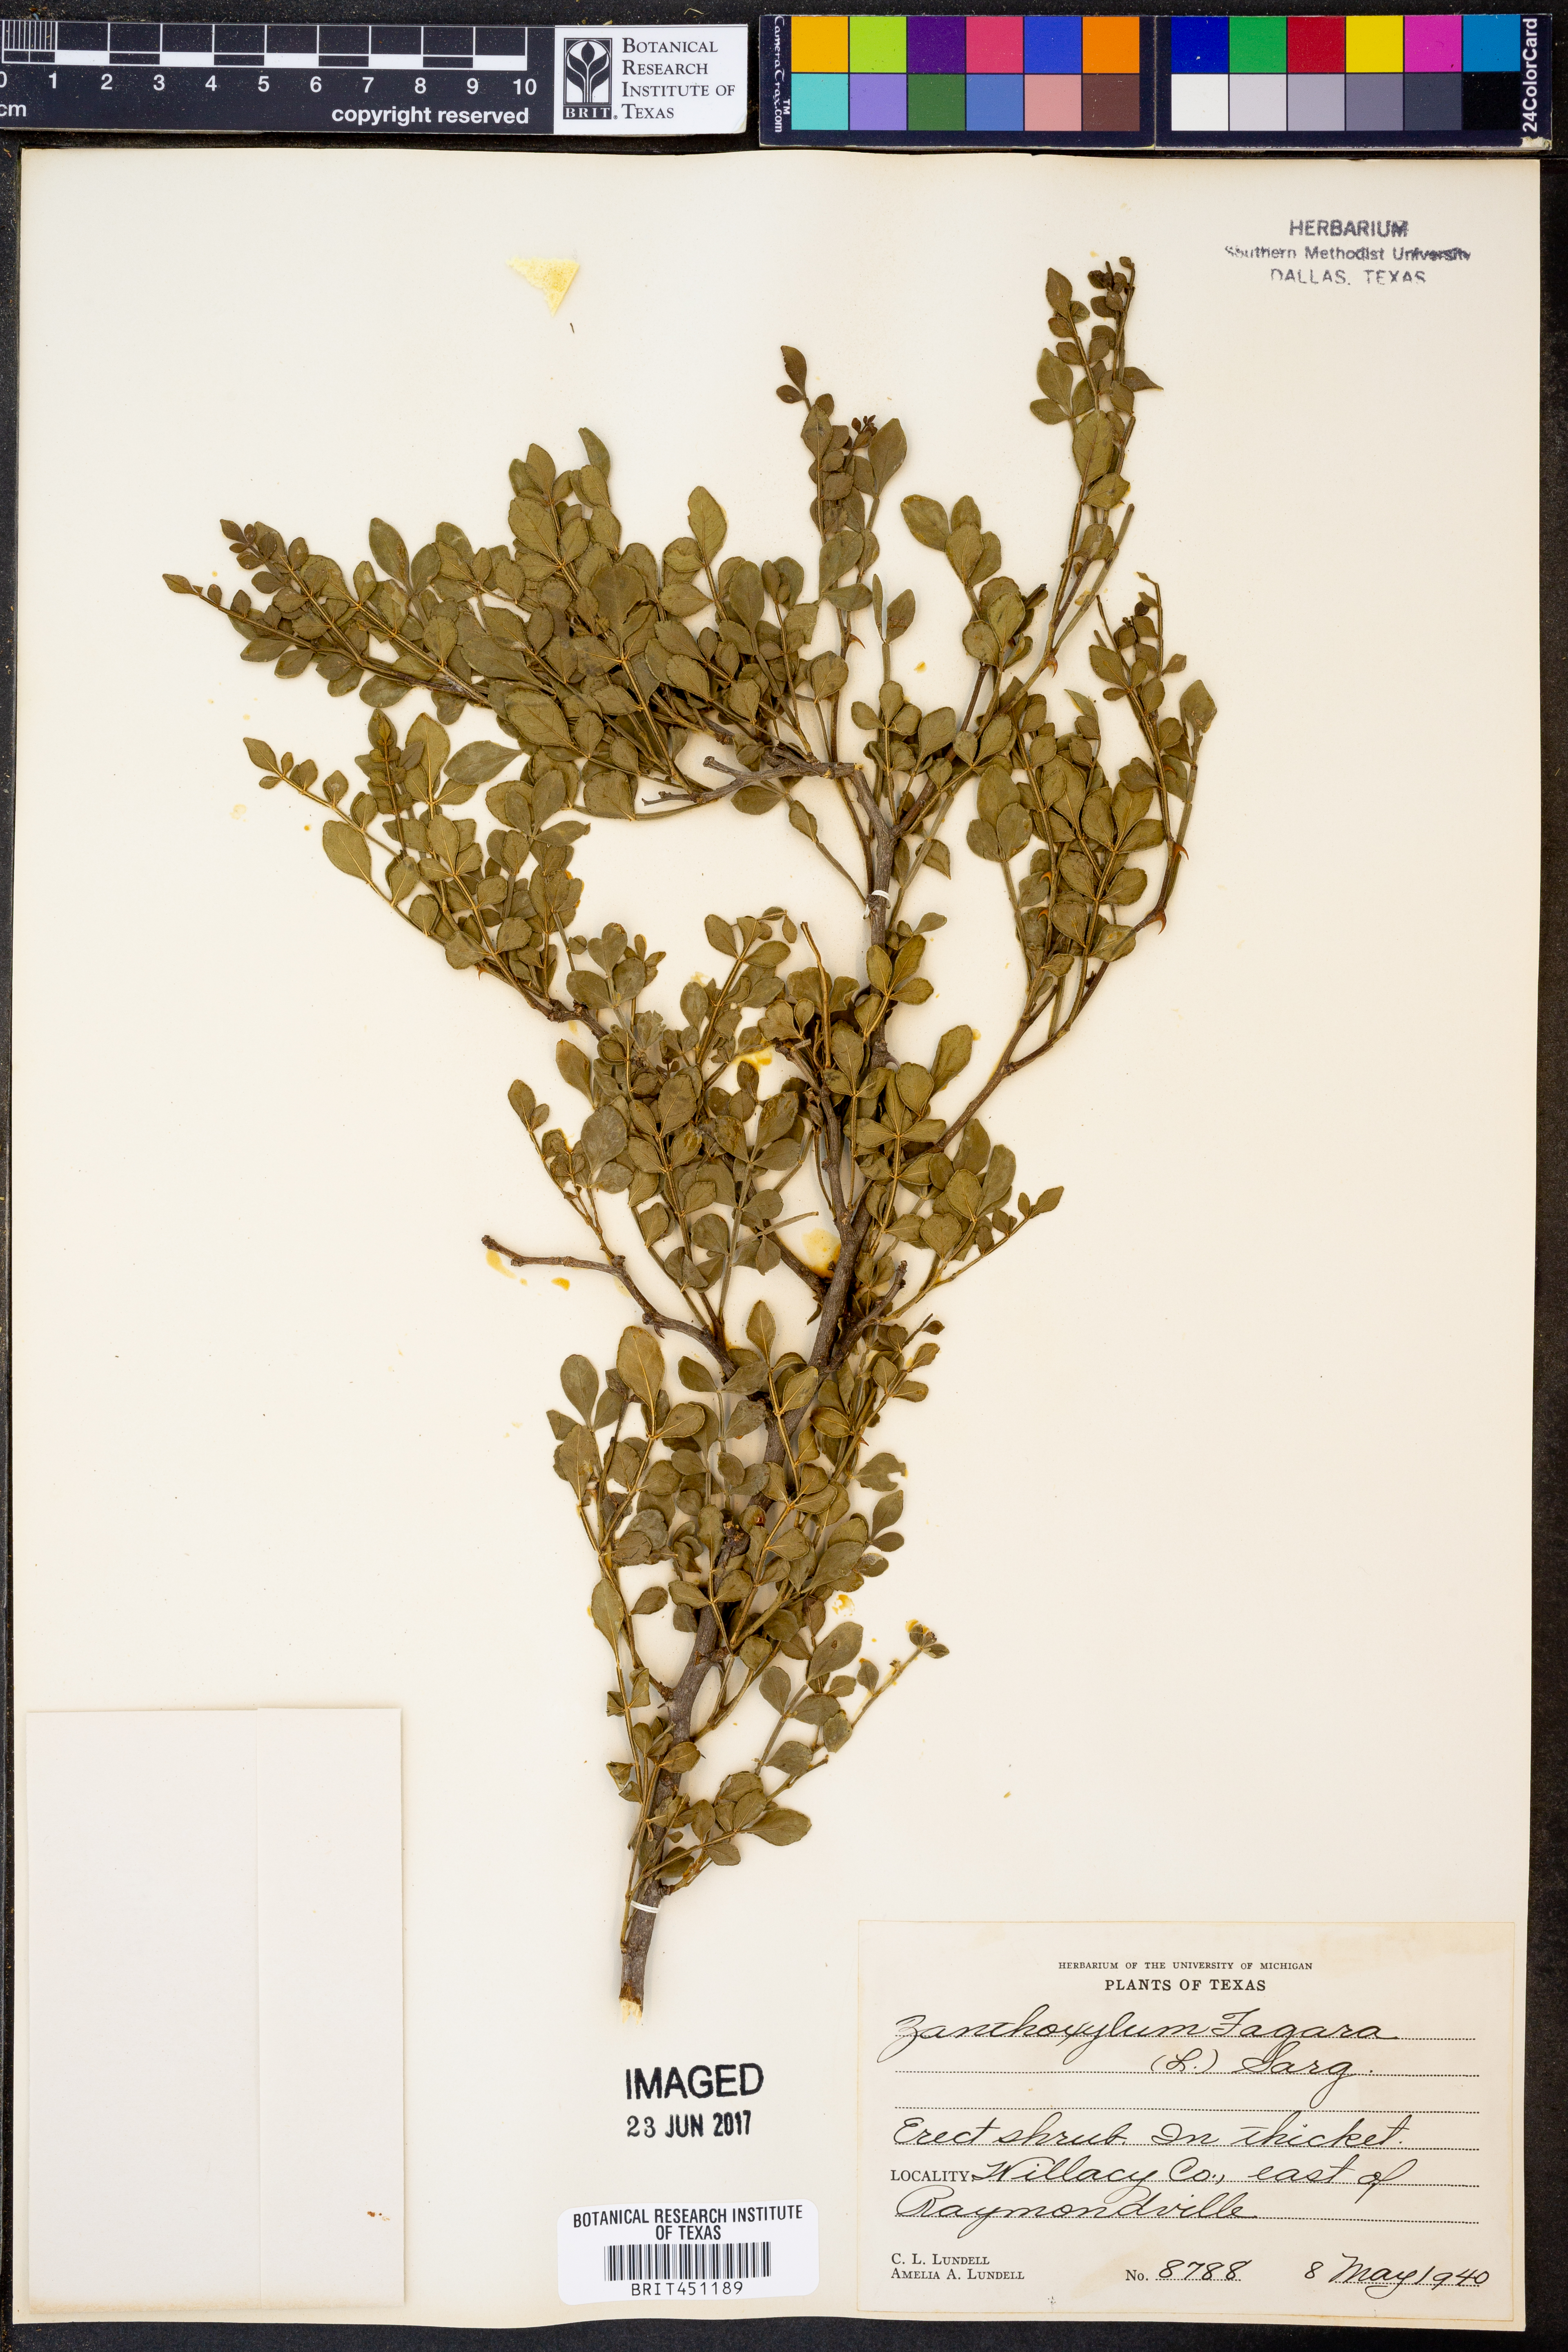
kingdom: Plantae
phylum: Tracheophyta
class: Magnoliopsida
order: Sapindales
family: Rutaceae
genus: Zanthoxylum
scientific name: Zanthoxylum fagara
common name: Lime prickly-ash
